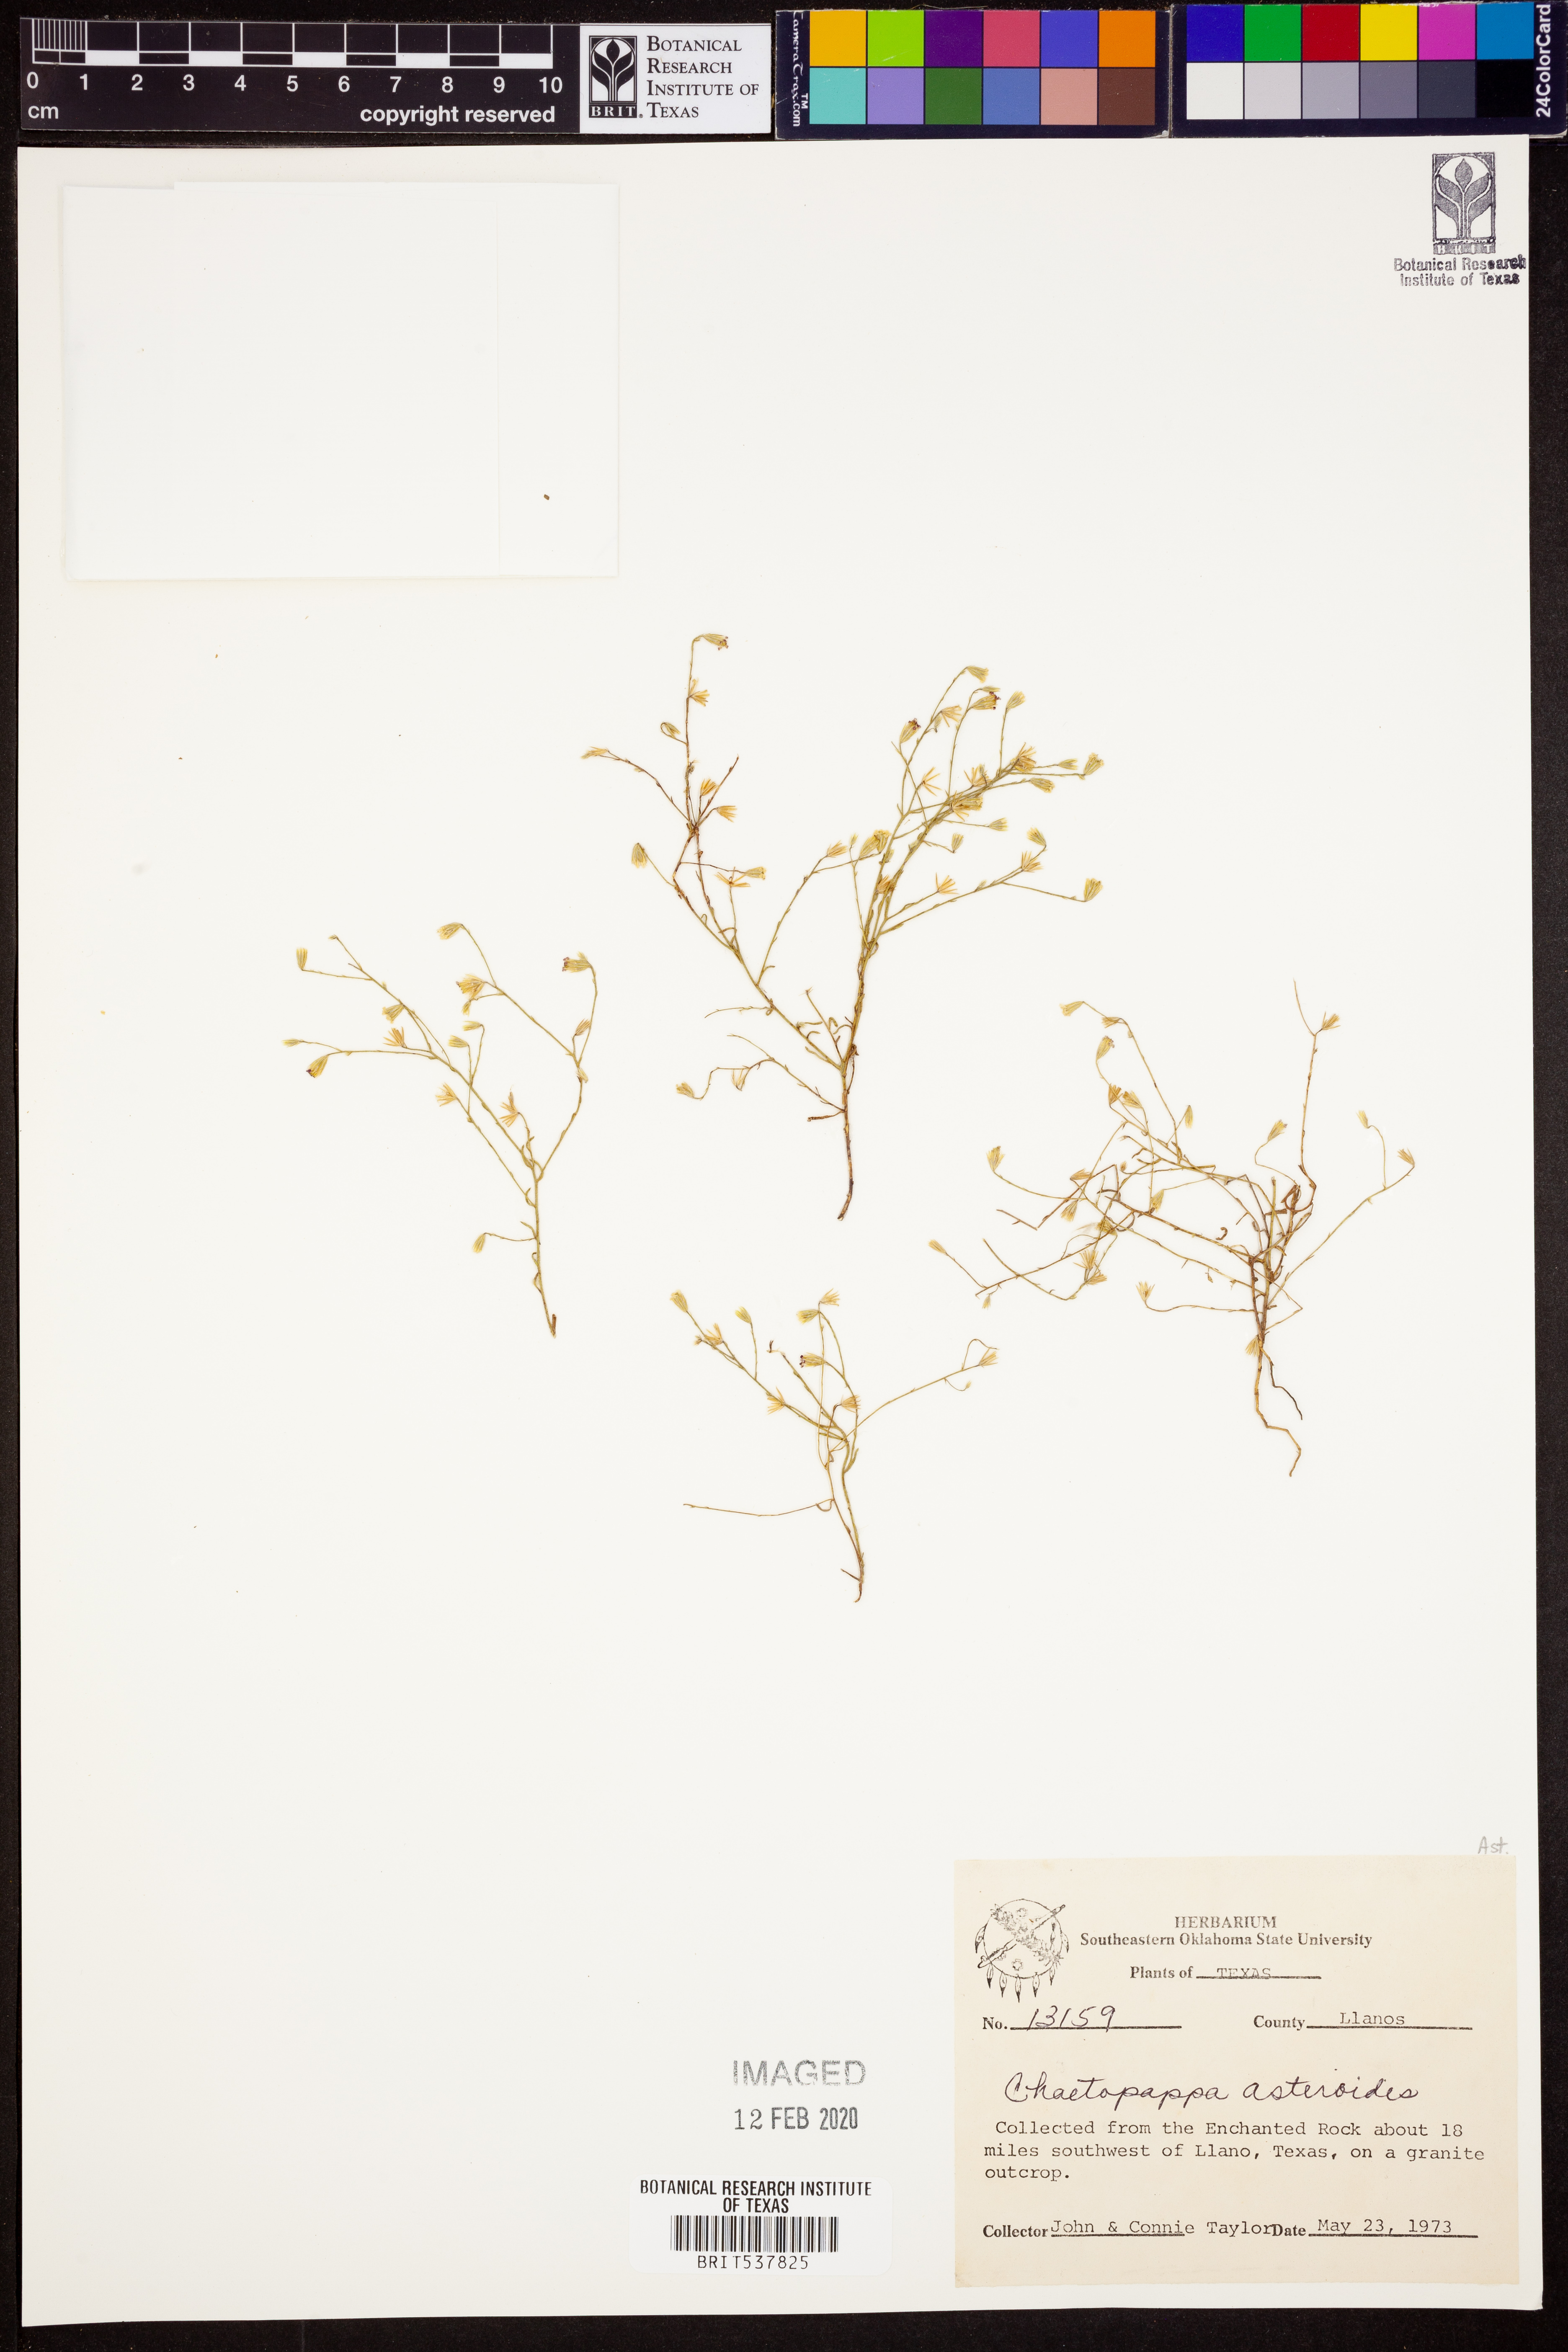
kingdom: Plantae
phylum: Tracheophyta
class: Magnoliopsida
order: Asterales
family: Asteraceae
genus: Chaetopappa
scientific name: Chaetopappa asteroides
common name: Tiny lazy daisy
